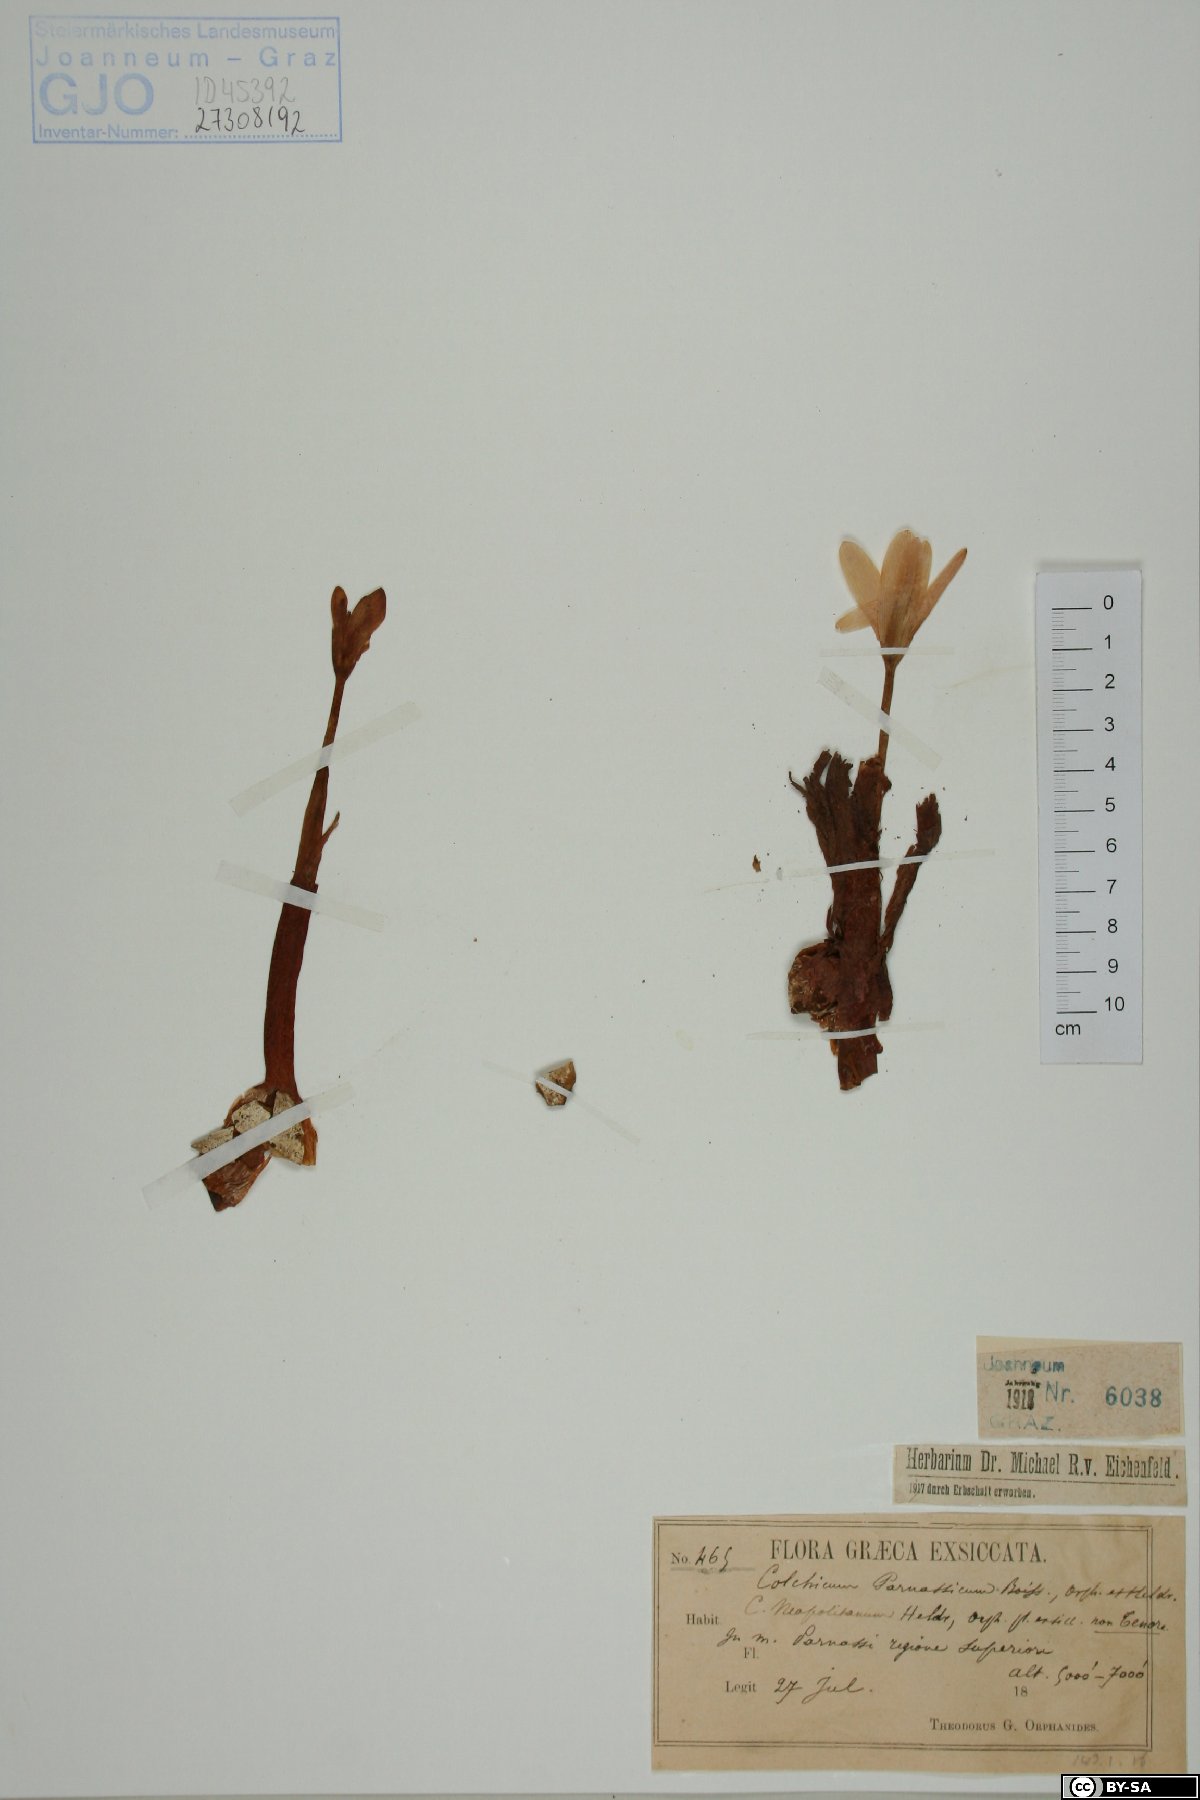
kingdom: Plantae
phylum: Tracheophyta
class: Liliopsida
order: Liliales
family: Colchicaceae
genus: Colchicum
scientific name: Colchicum parnassicum
